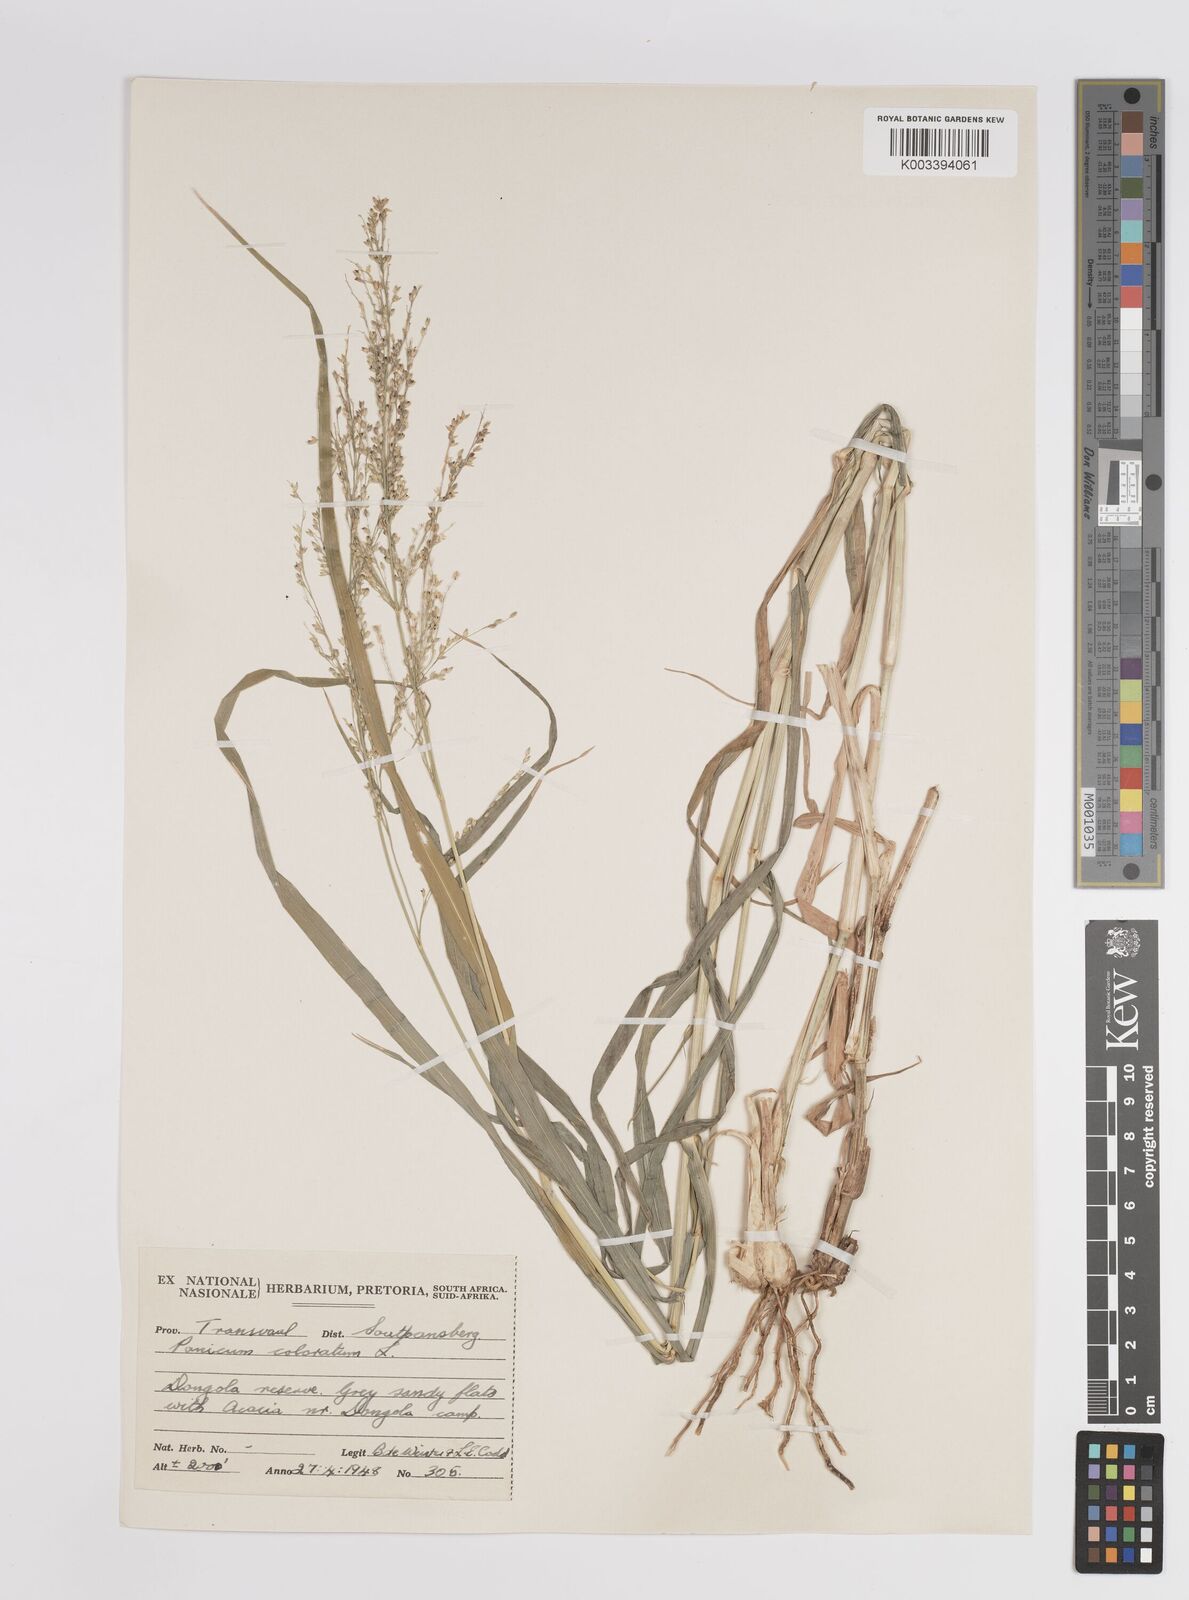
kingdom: Plantae
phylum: Tracheophyta
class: Liliopsida
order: Poales
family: Poaceae
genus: Panicum
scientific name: Panicum coloratum
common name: Kleingrass
